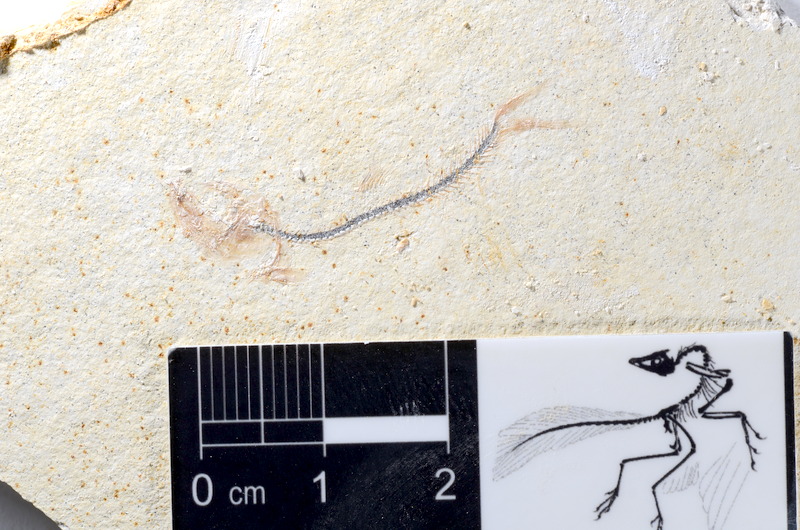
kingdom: Animalia
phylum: Chordata
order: Salmoniformes
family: Orthogonikleithridae
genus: Orthogonikleithrus
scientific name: Orthogonikleithrus hoelli
